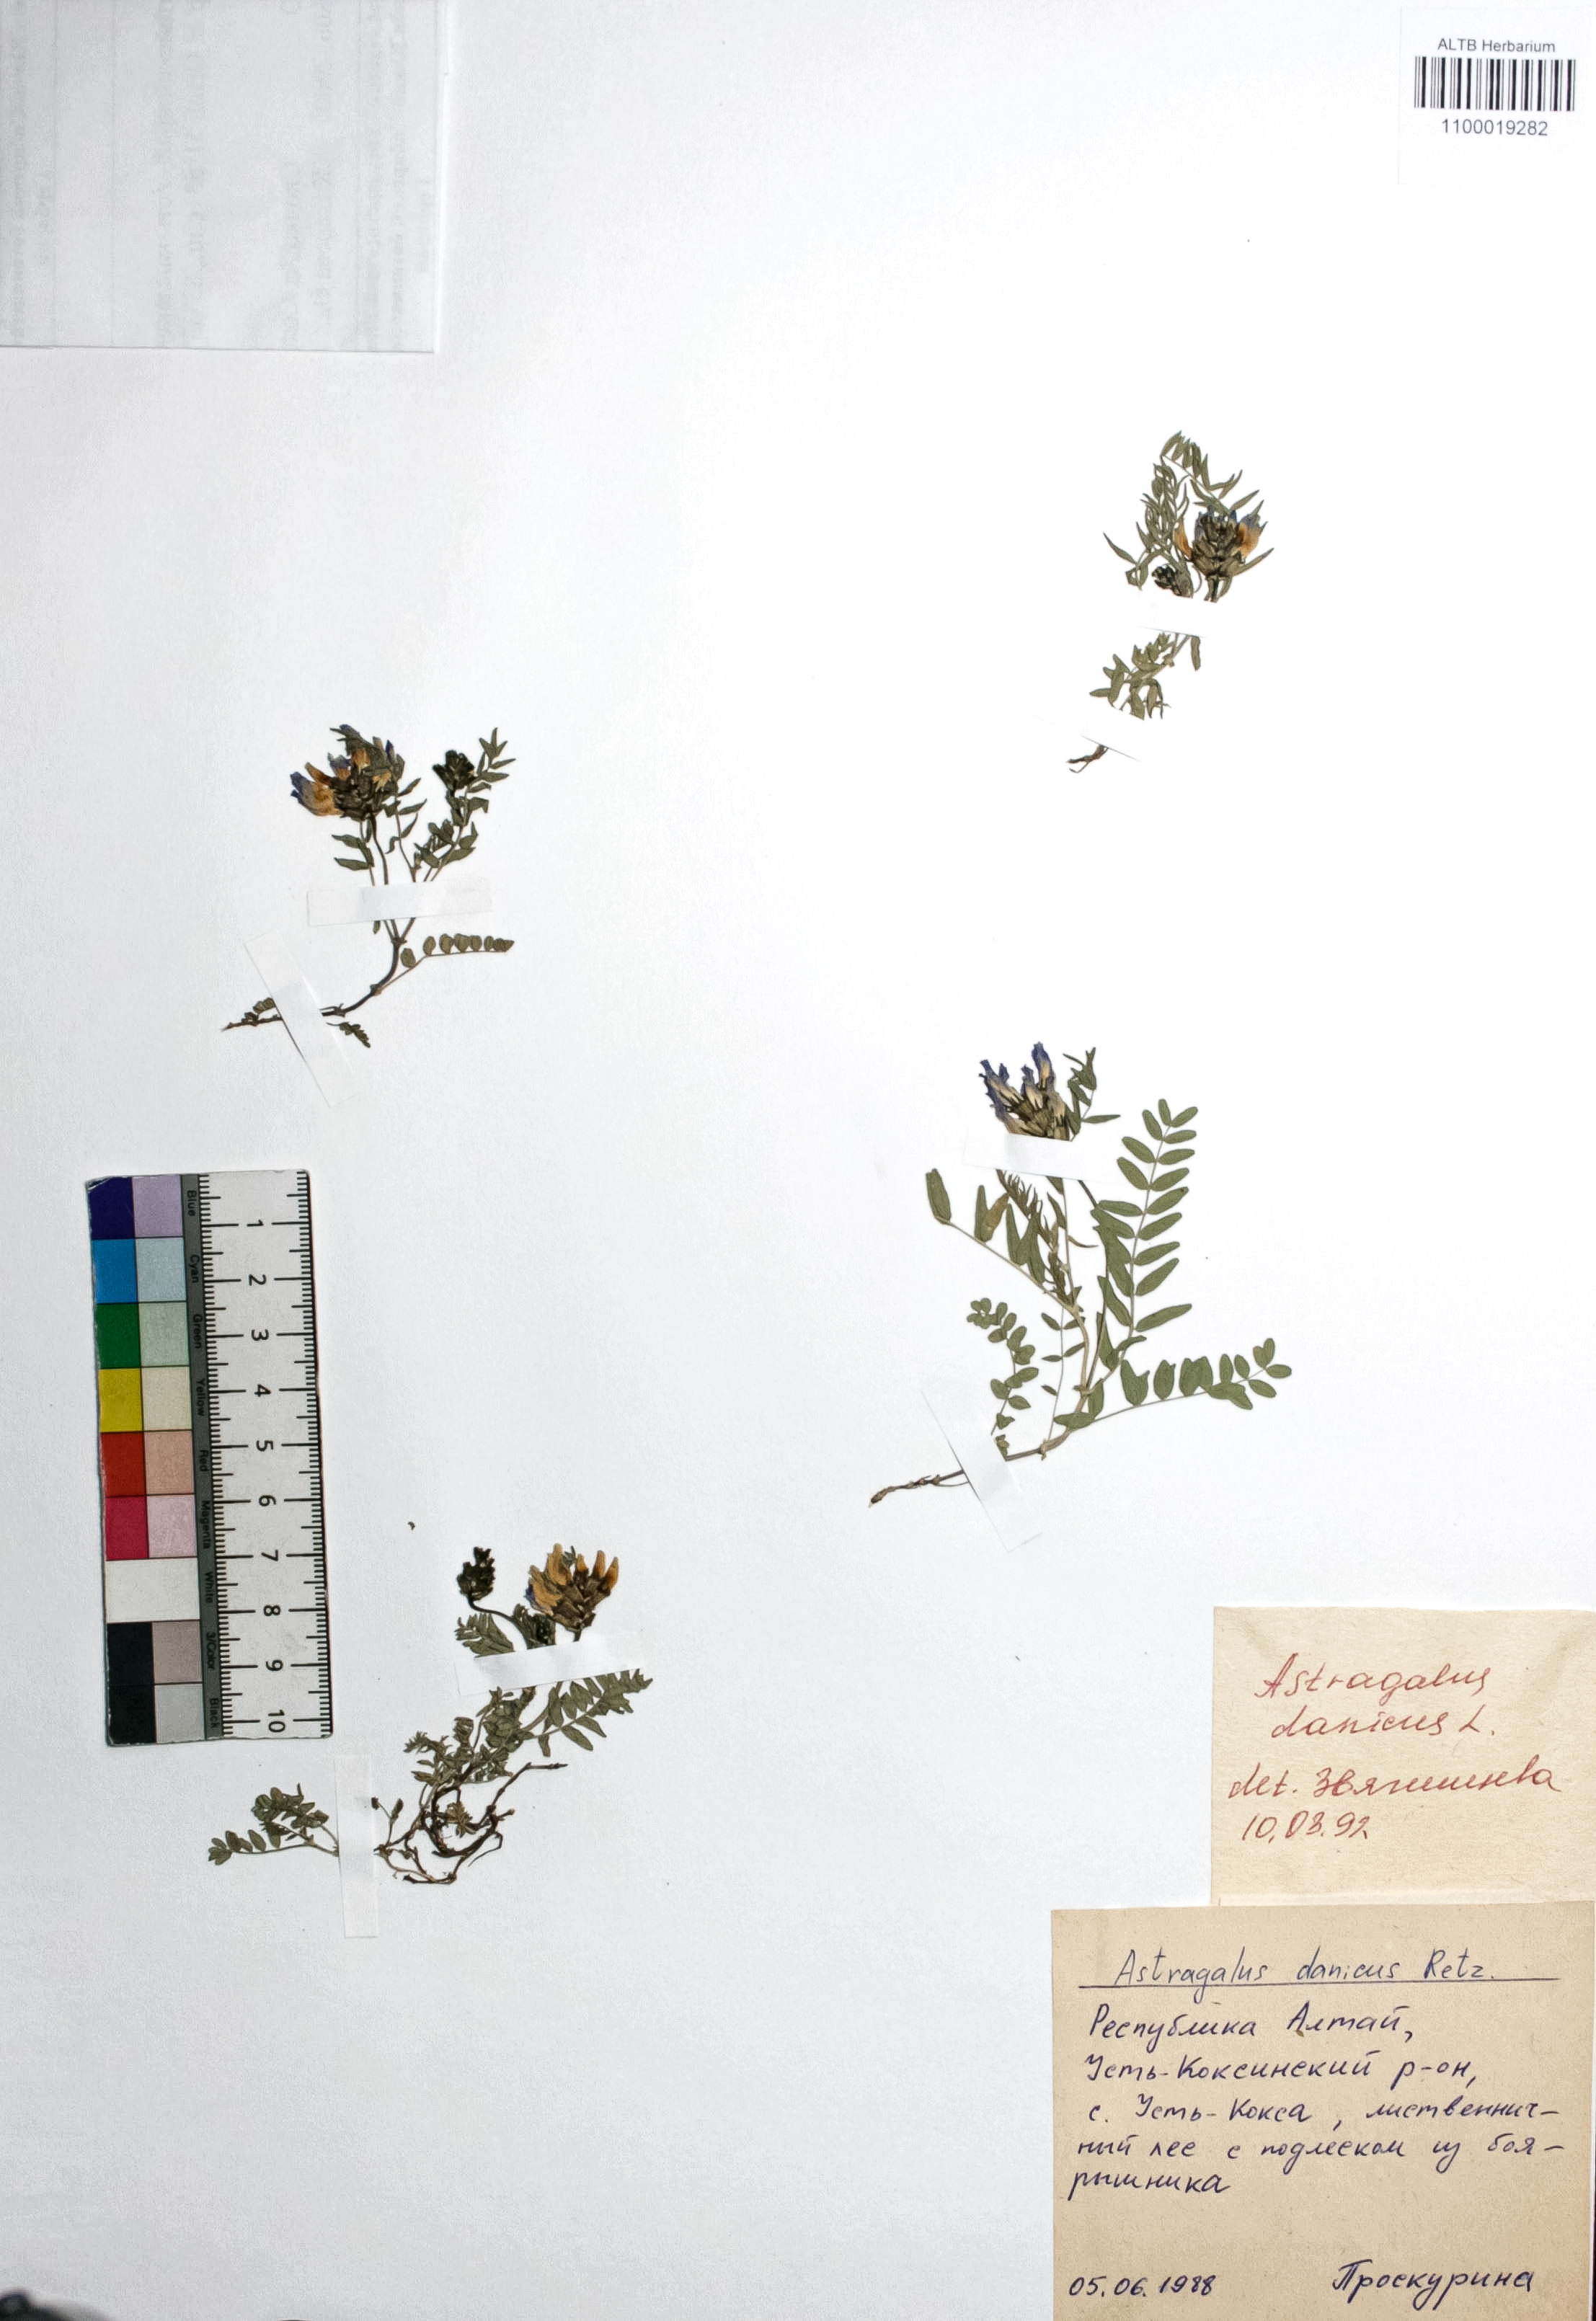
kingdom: Plantae
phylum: Tracheophyta
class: Magnoliopsida
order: Fabales
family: Fabaceae
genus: Astragalus
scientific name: Astragalus danicus
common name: Purple milk-vetch
